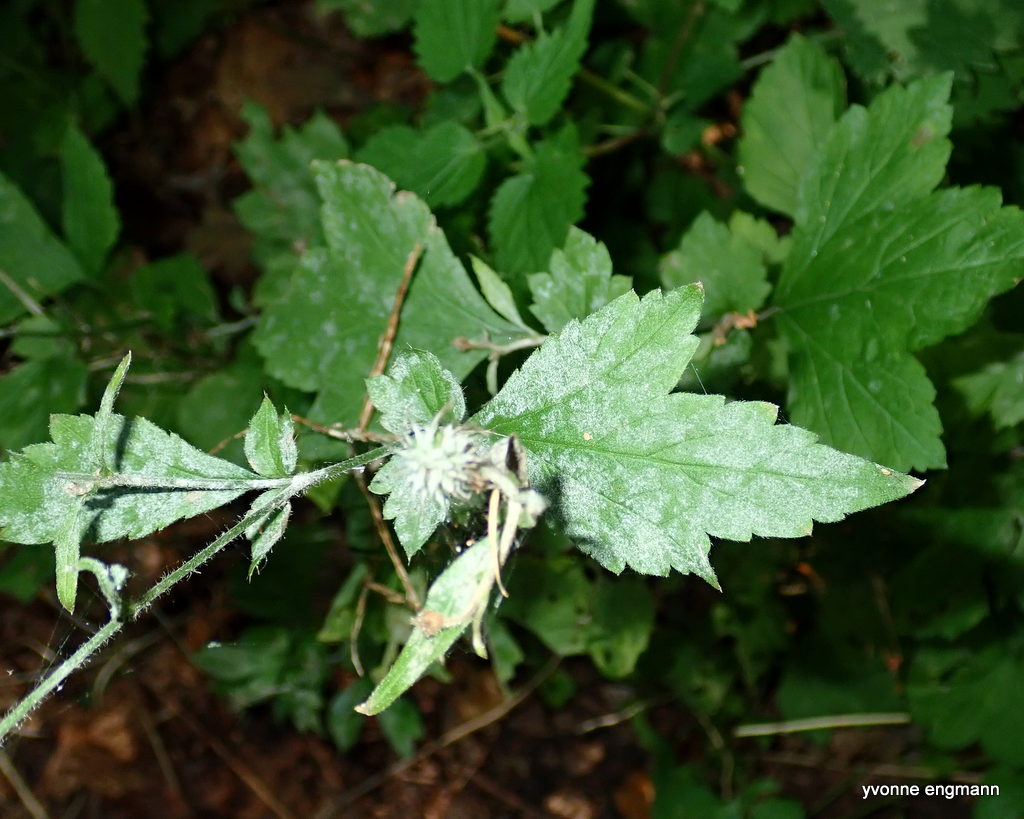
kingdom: Fungi
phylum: Ascomycota
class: Leotiomycetes
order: Helotiales
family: Erysiphaceae
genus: Podosphaera
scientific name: Podosphaera aphanis
